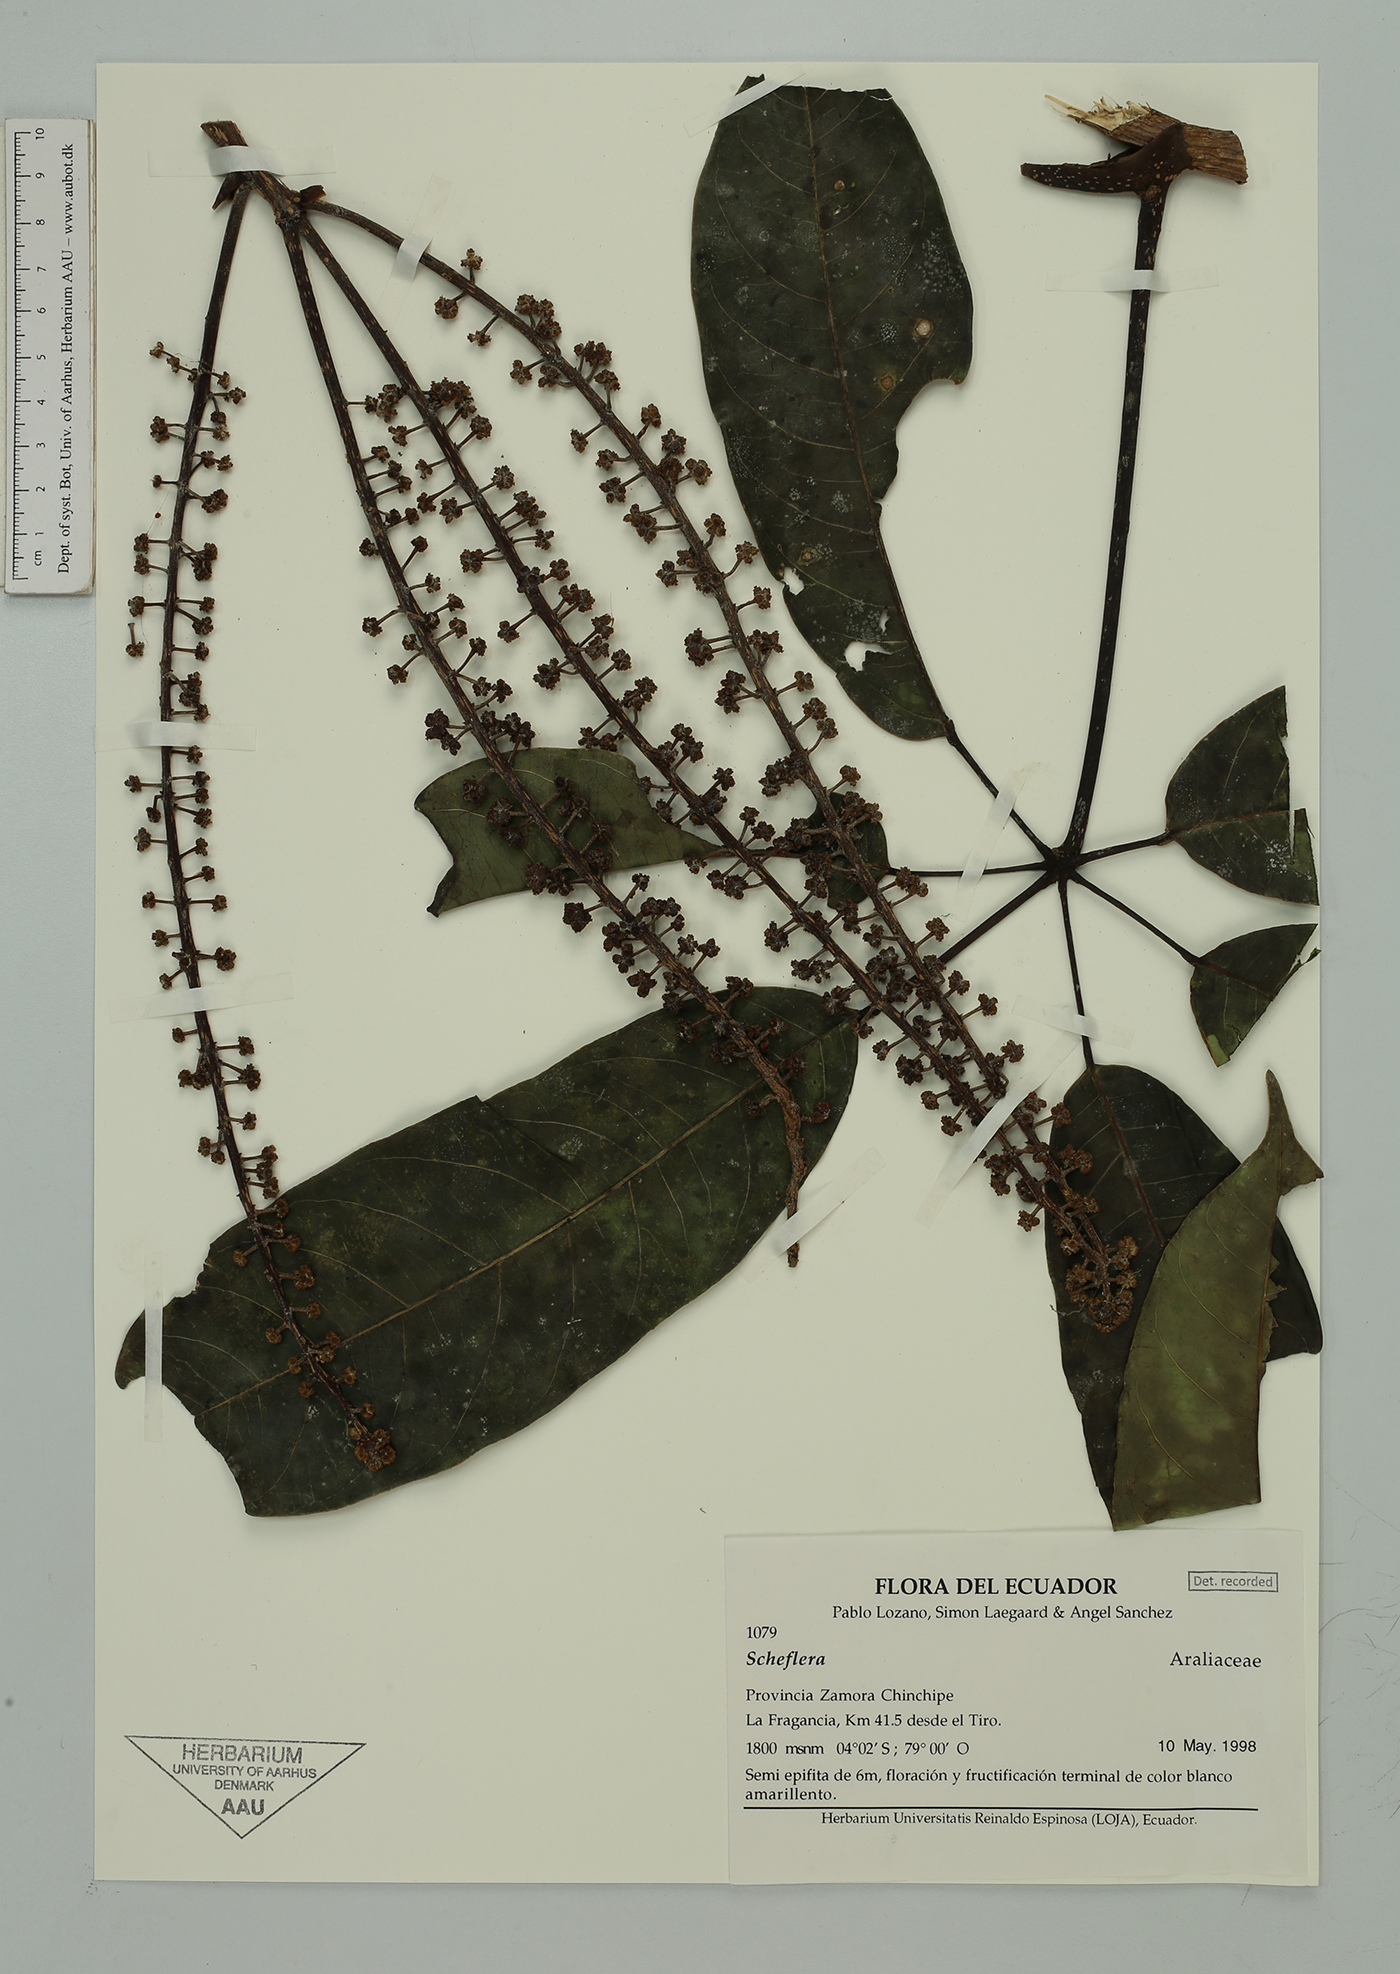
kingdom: Plantae
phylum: Tracheophyta
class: Magnoliopsida
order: Apiales
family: Araliaceae
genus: Sciodaphyllum
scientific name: Sciodaphyllum
